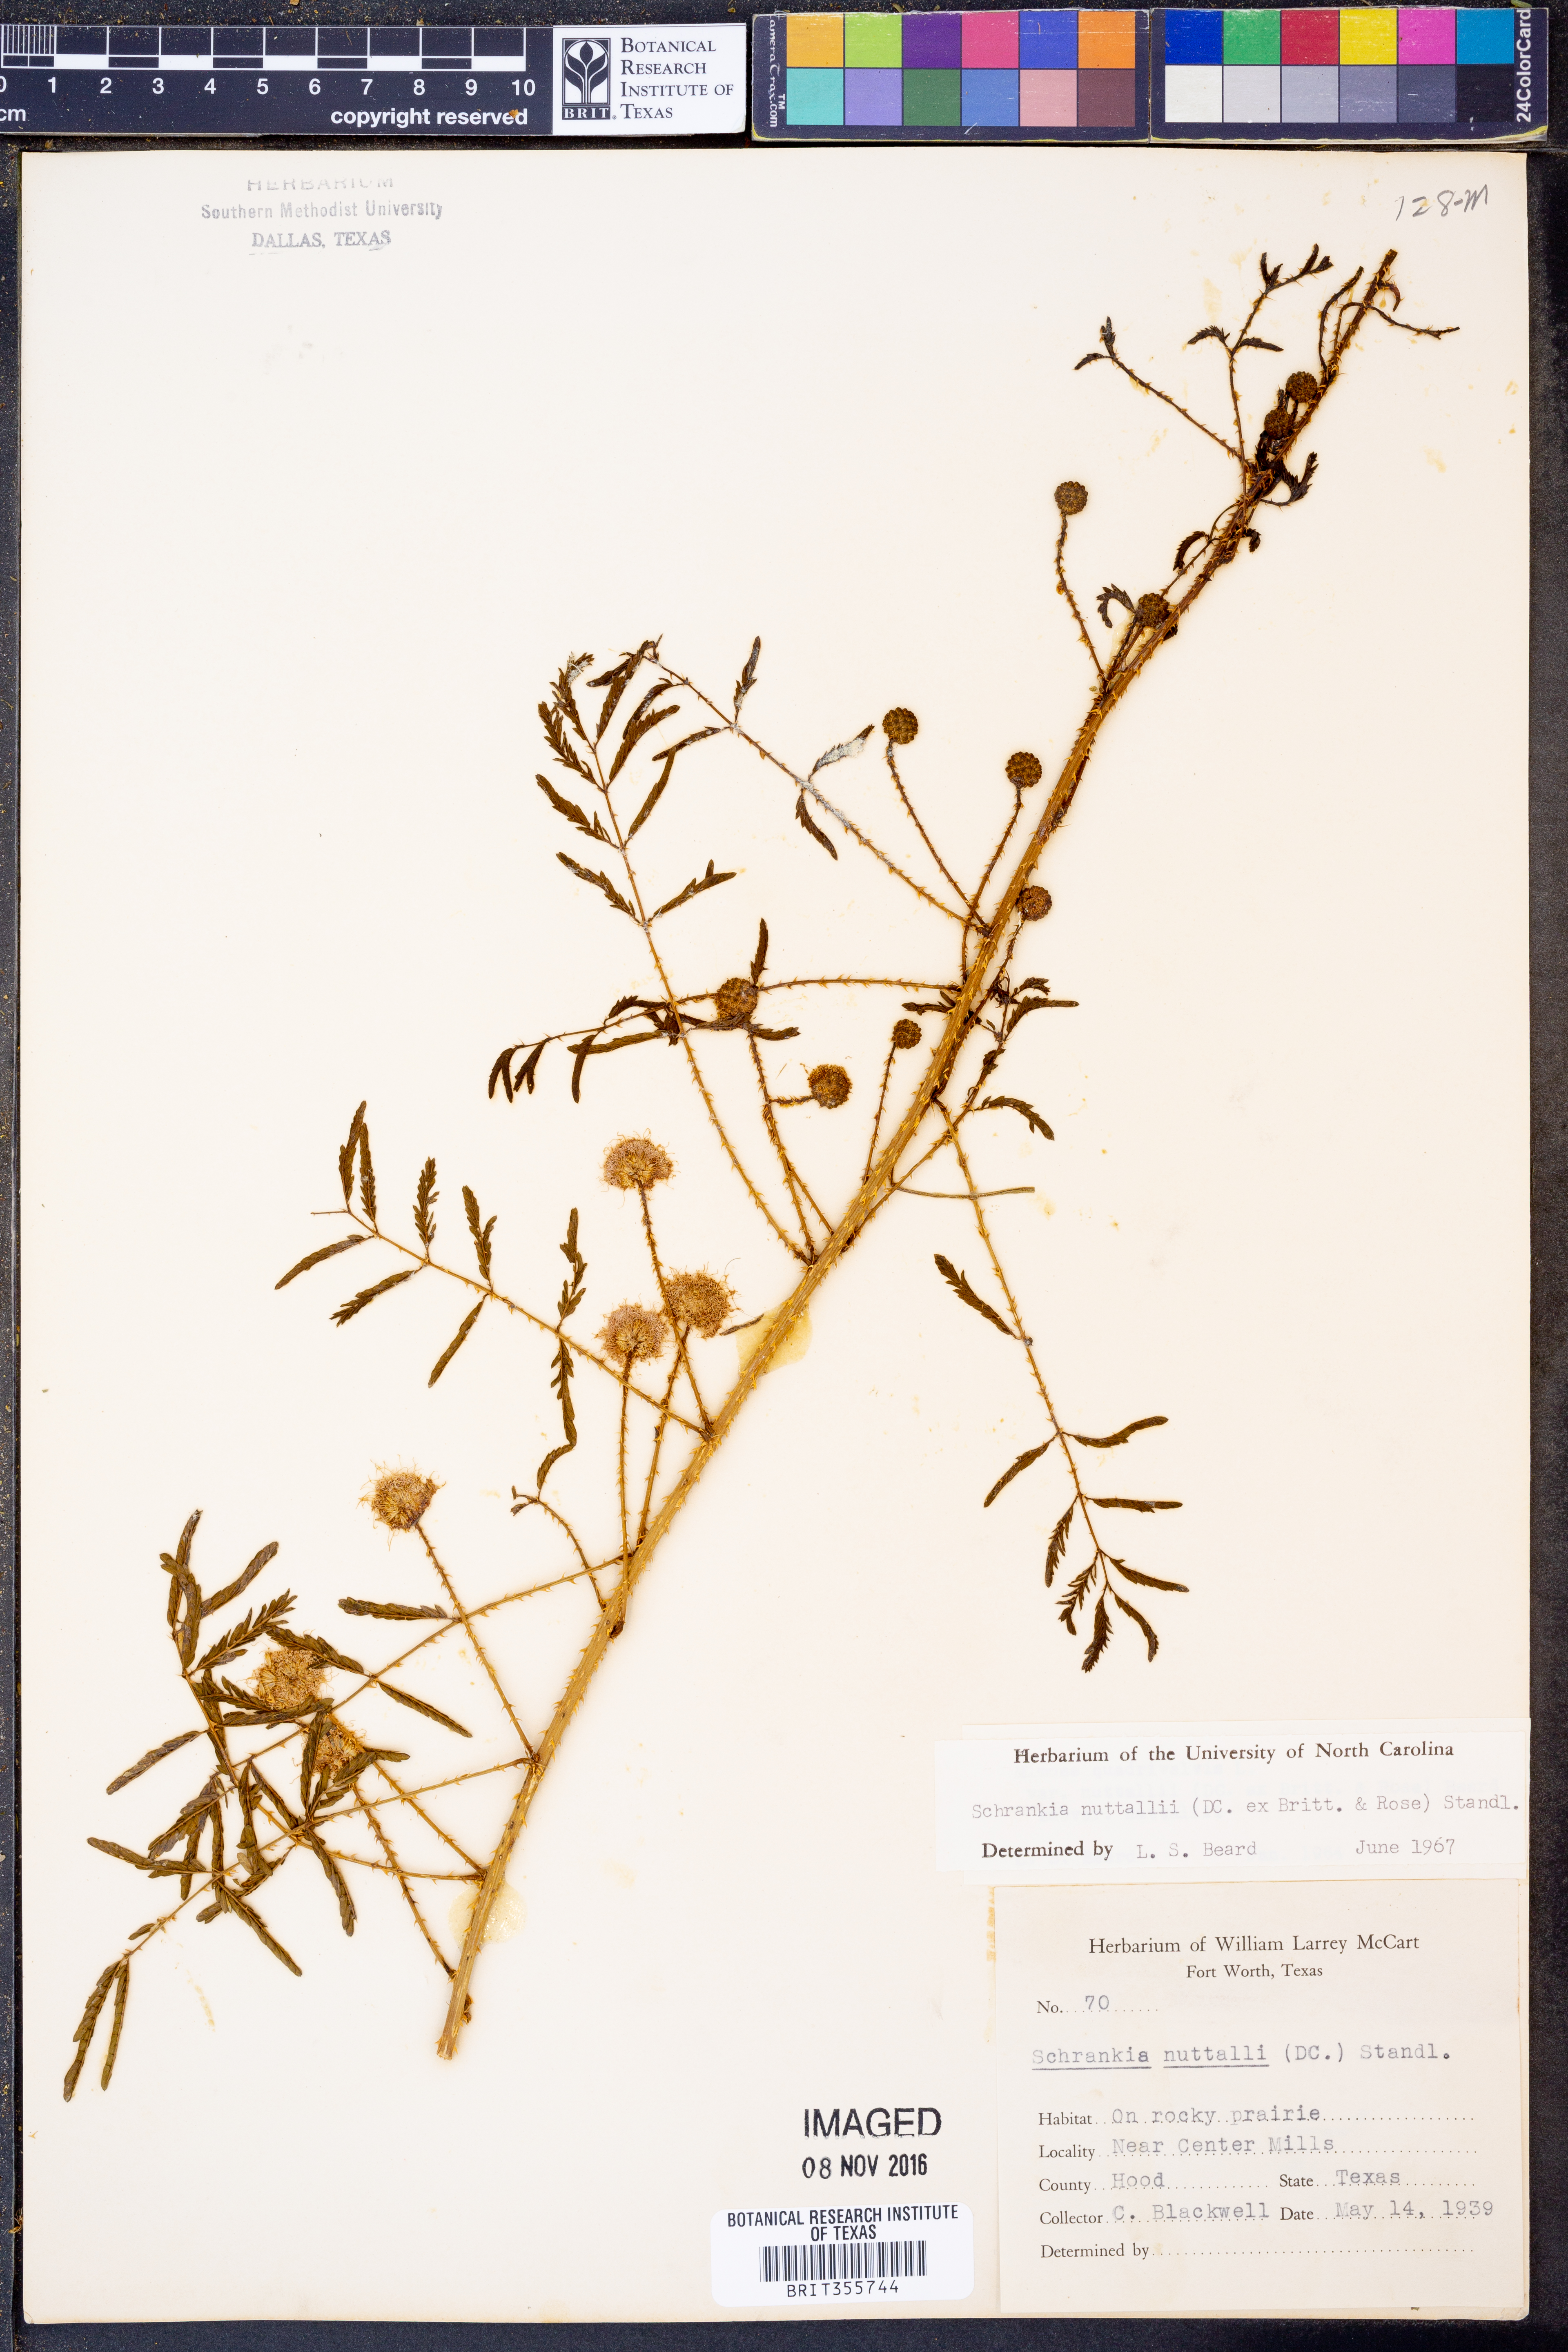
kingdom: Plantae
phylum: Tracheophyta
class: Magnoliopsida
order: Fabales
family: Fabaceae
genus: Mimosa
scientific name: Mimosa quadrivalvis
